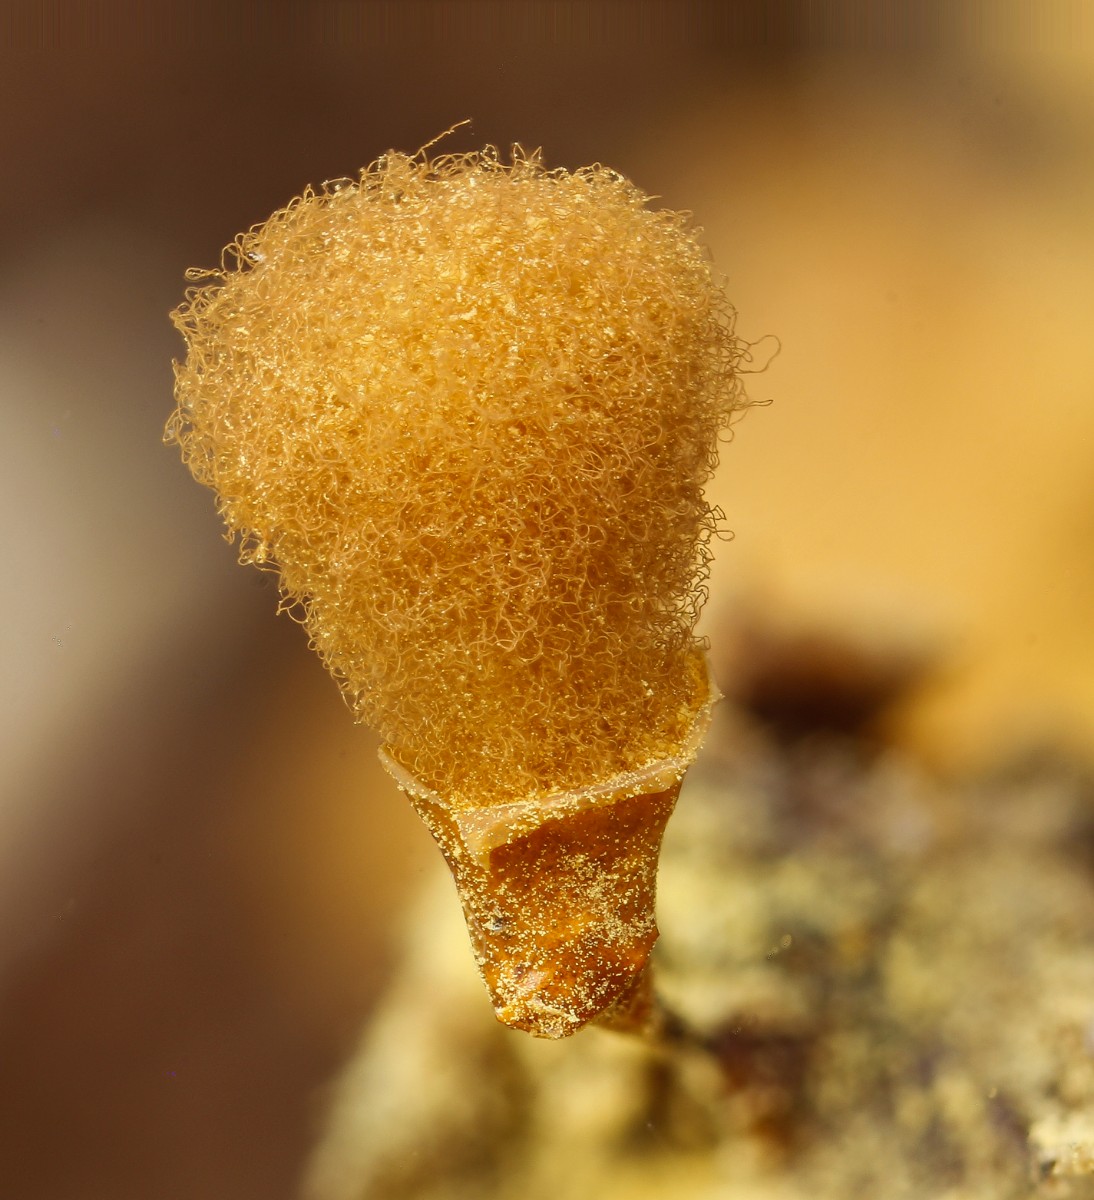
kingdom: Protozoa
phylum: Mycetozoa
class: Myxomycetes
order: Trichiales
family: Arcyriaceae
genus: Hemitrichia
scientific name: Hemitrichia clavata
